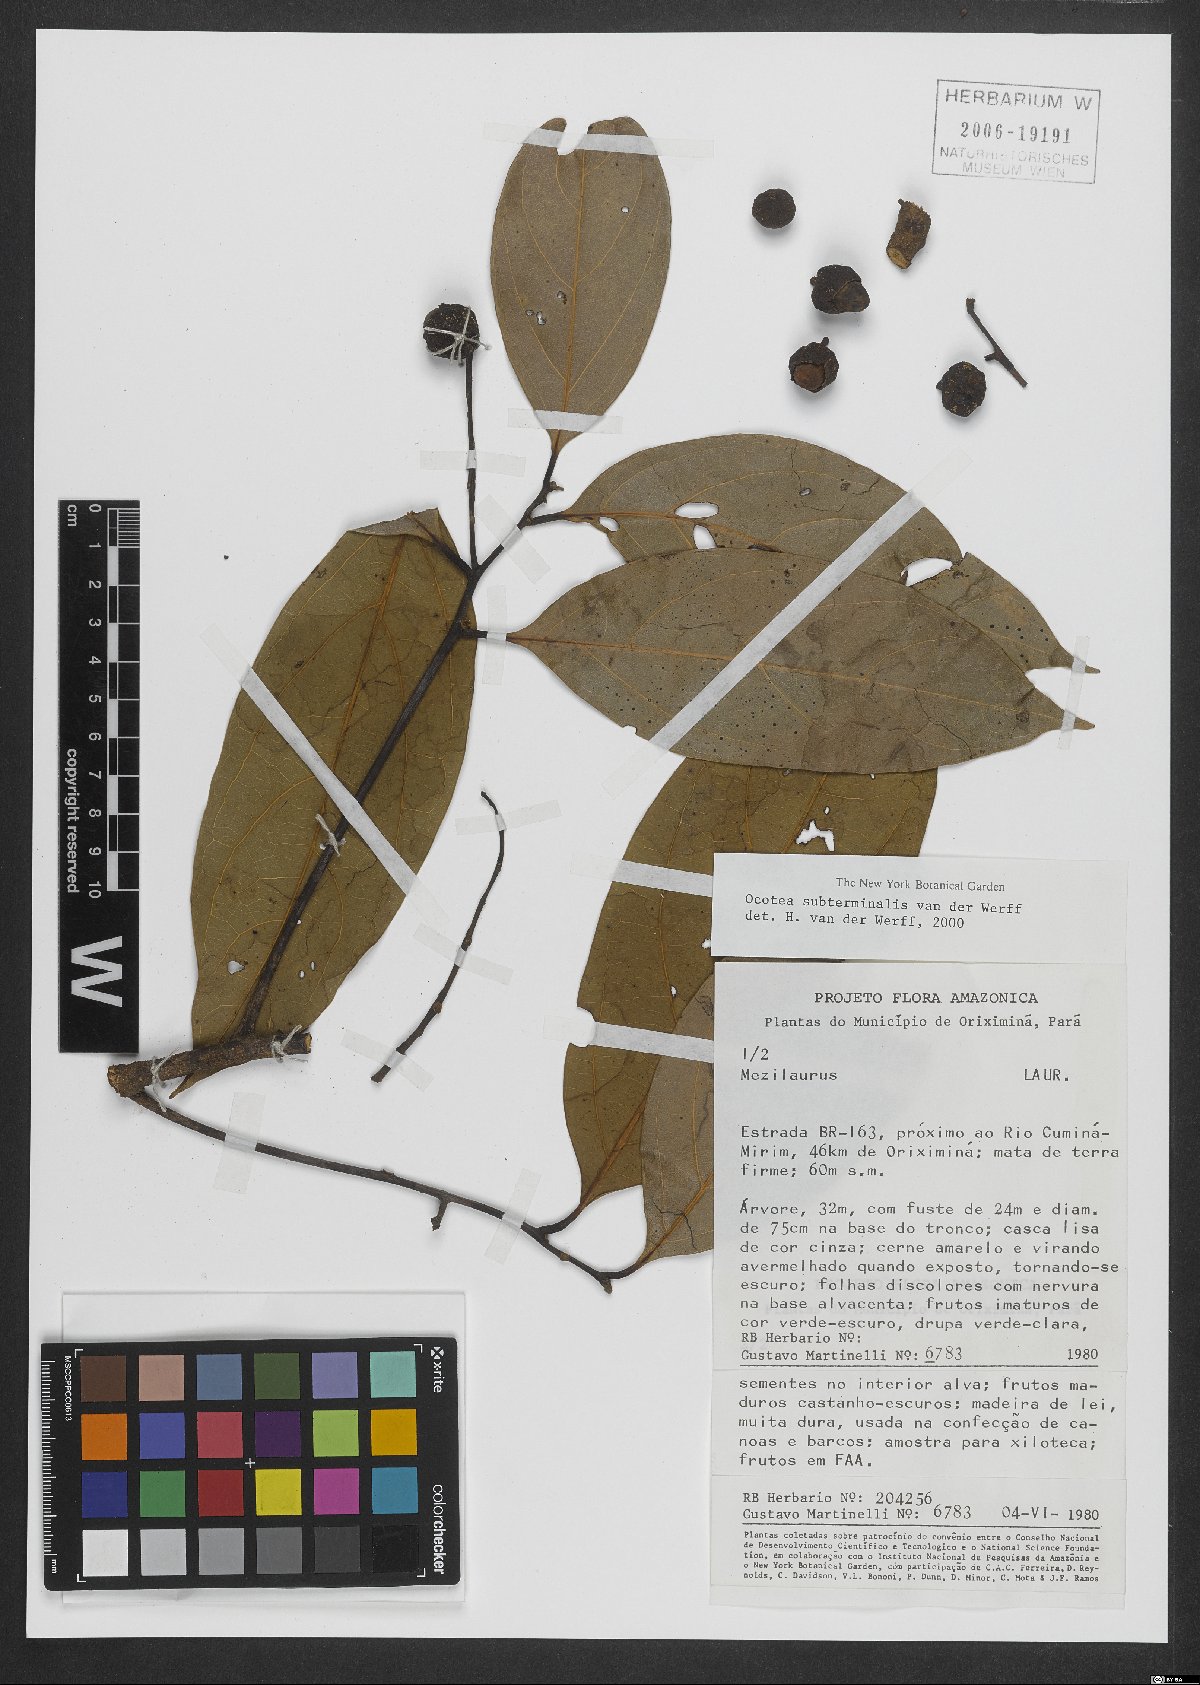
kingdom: Plantae
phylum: Tracheophyta
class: Magnoliopsida
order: Laurales
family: Lauraceae
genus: Ocotea
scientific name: Ocotea subterminalis
